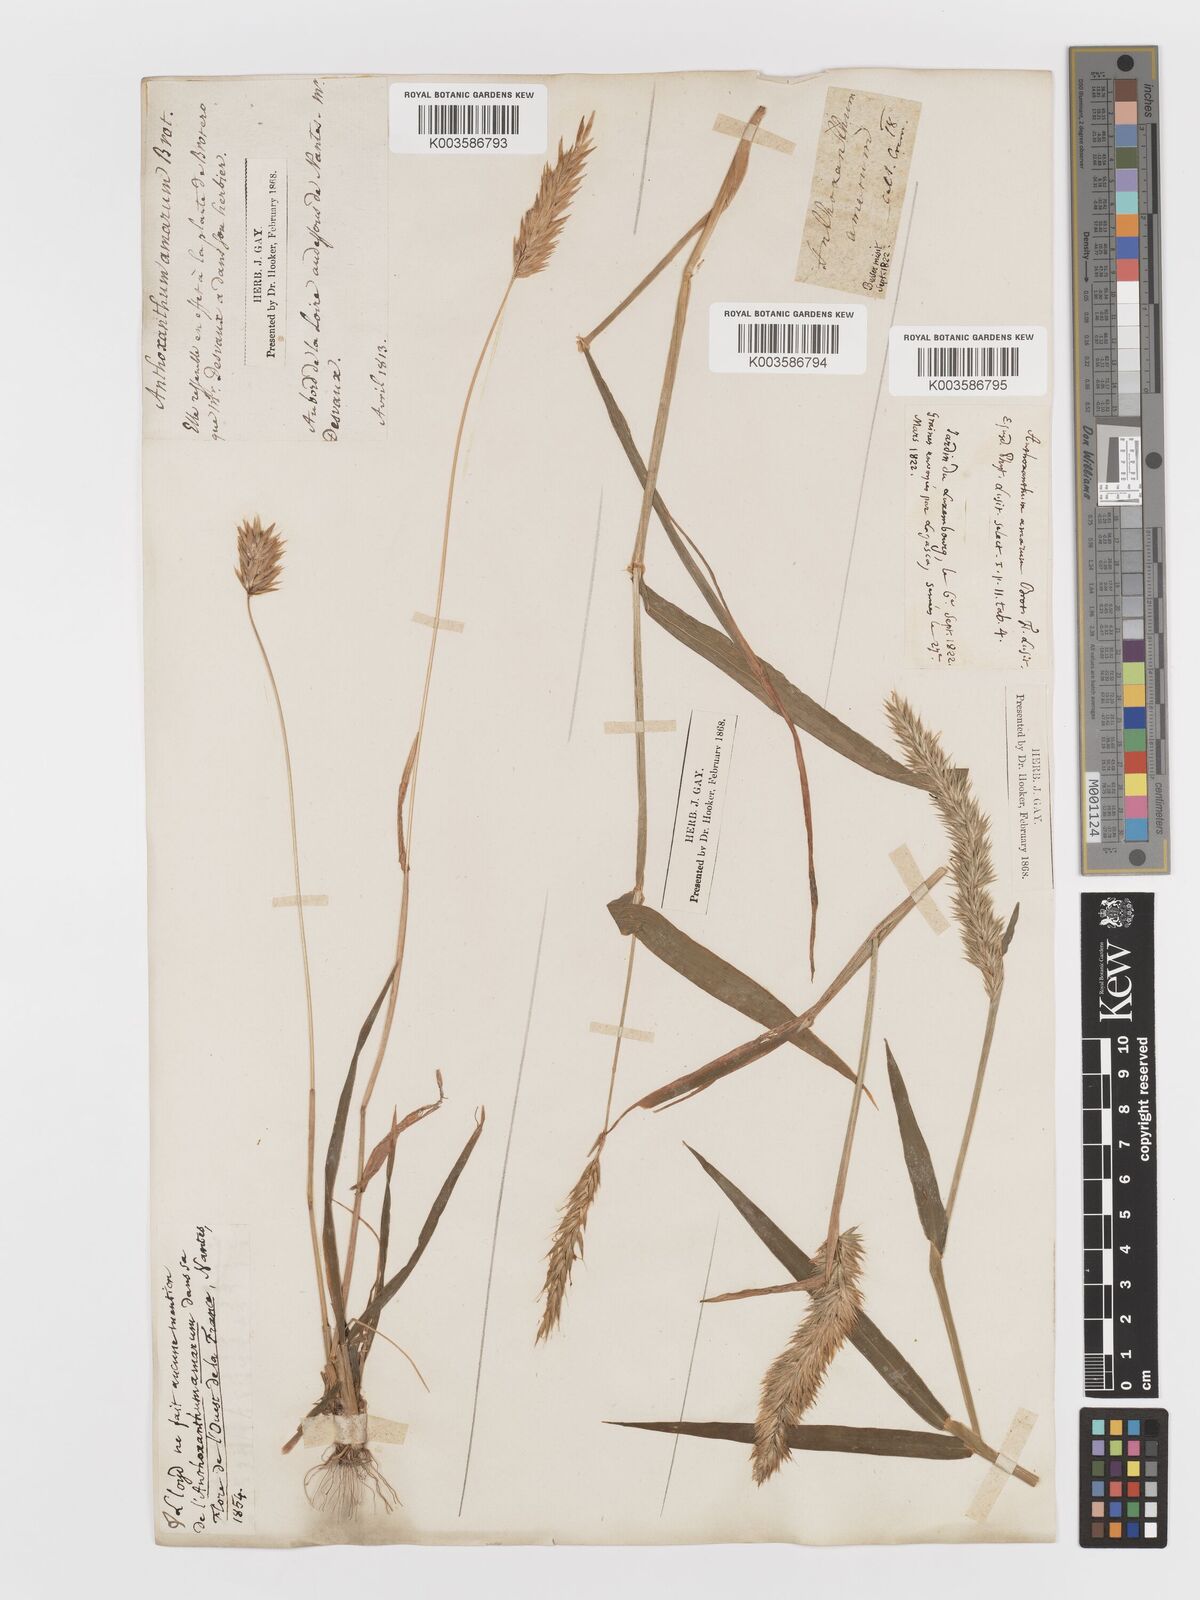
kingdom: Plantae
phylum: Tracheophyta
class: Liliopsida
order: Poales
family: Poaceae
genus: Anthoxanthum
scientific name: Anthoxanthum amarum
